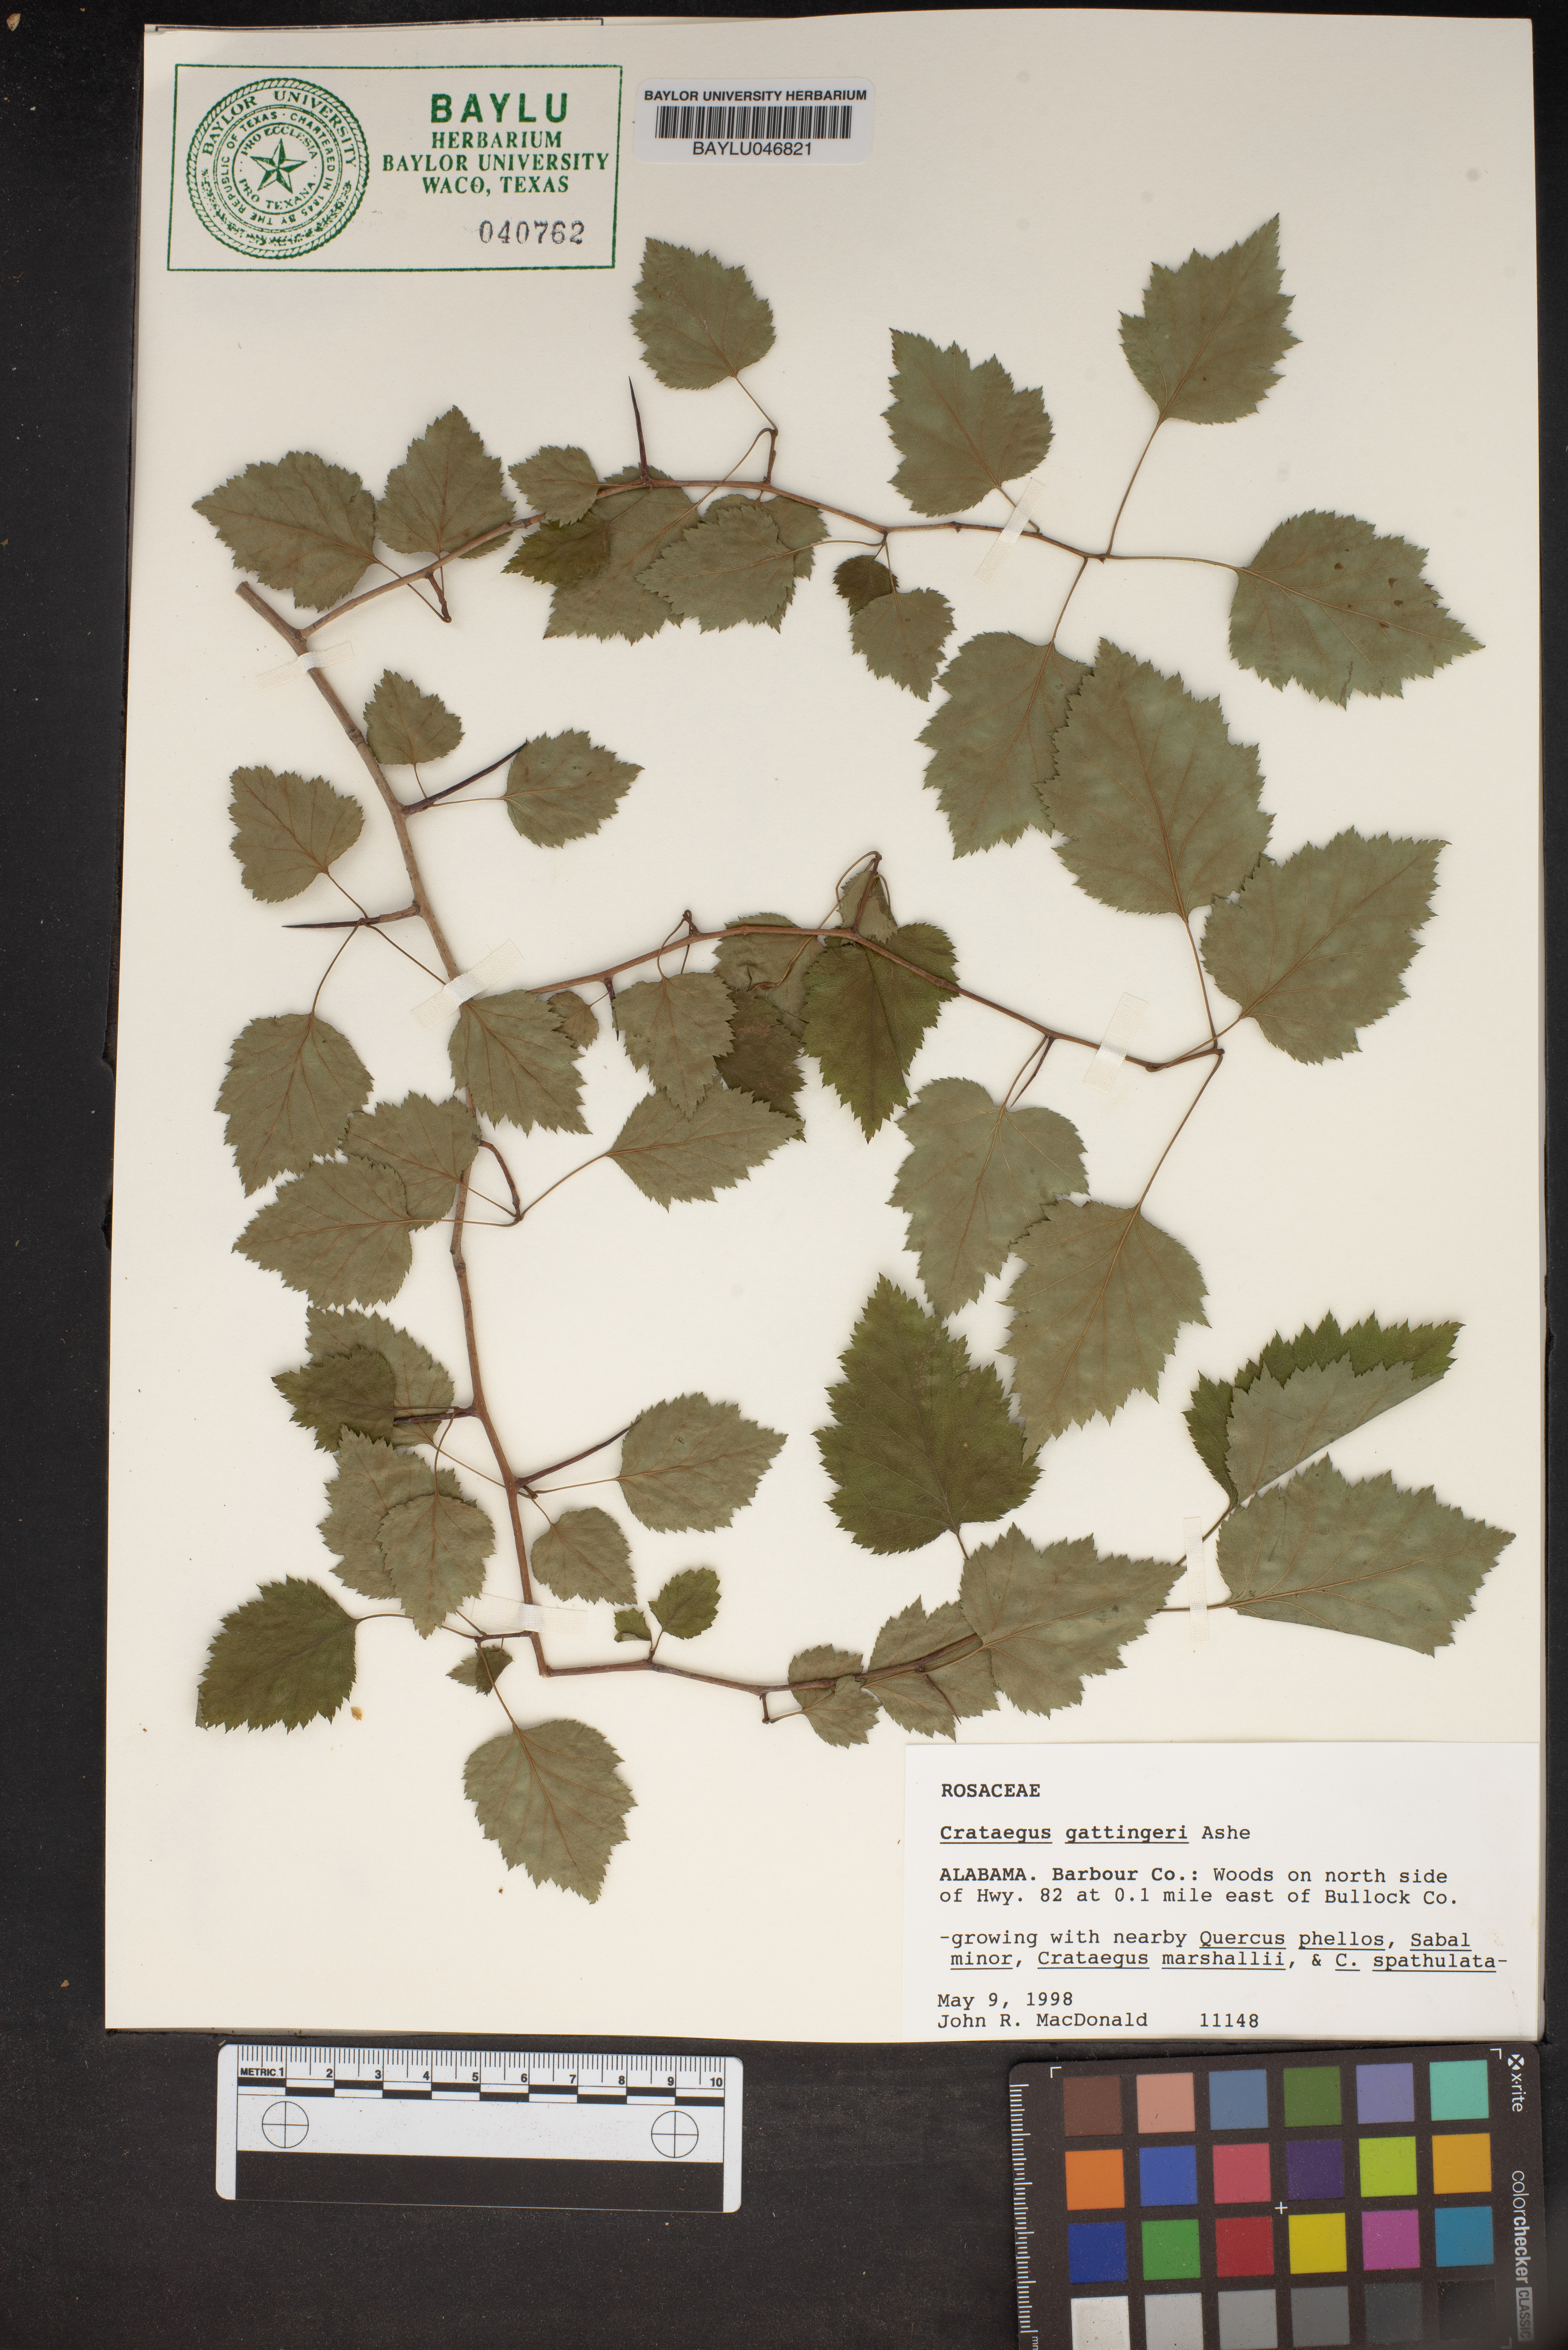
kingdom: Plantae
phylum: Tracheophyta
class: Magnoliopsida
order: Rosales
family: Rosaceae
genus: Crataegus
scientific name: Crataegus gattingeri
